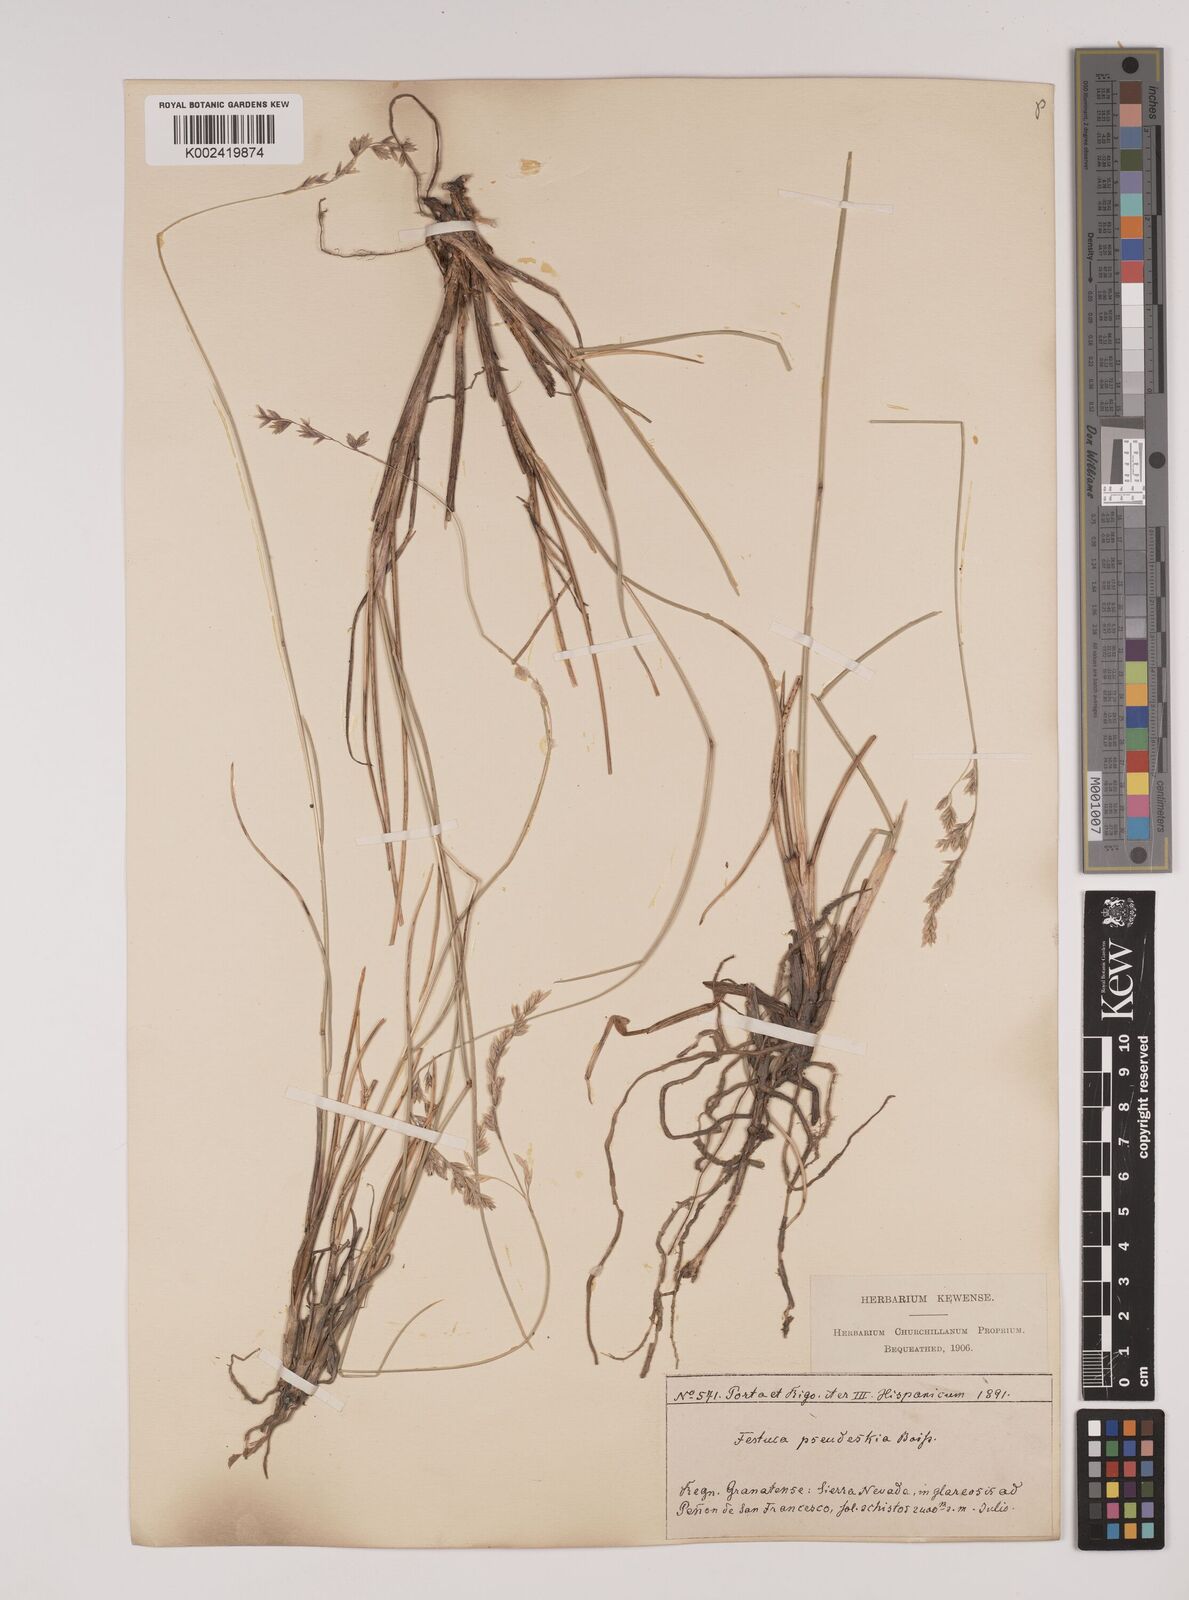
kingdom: Plantae
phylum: Tracheophyta
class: Liliopsida
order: Poales
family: Poaceae
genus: Festuca
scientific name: Festuca pseudeskia
